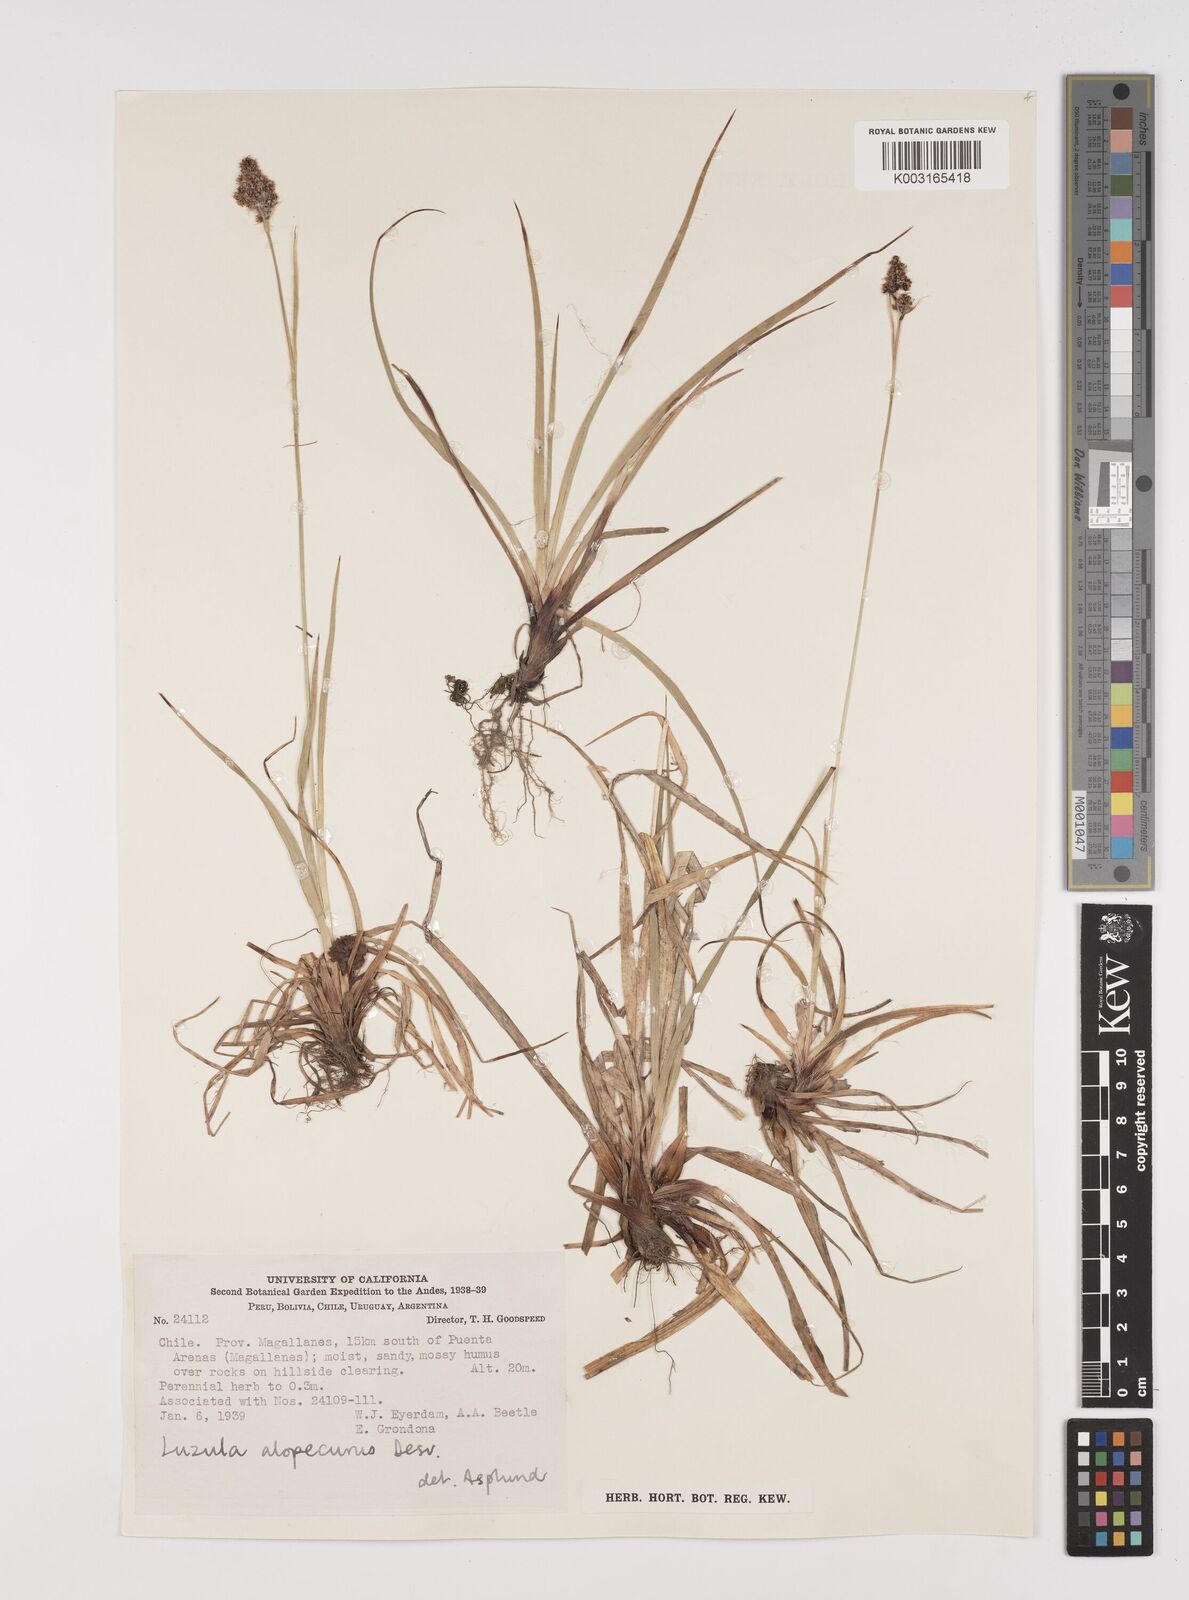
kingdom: Plantae
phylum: Tracheophyta
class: Liliopsida
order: Poales
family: Juncaceae
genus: Luzula
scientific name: Luzula alopecurus
